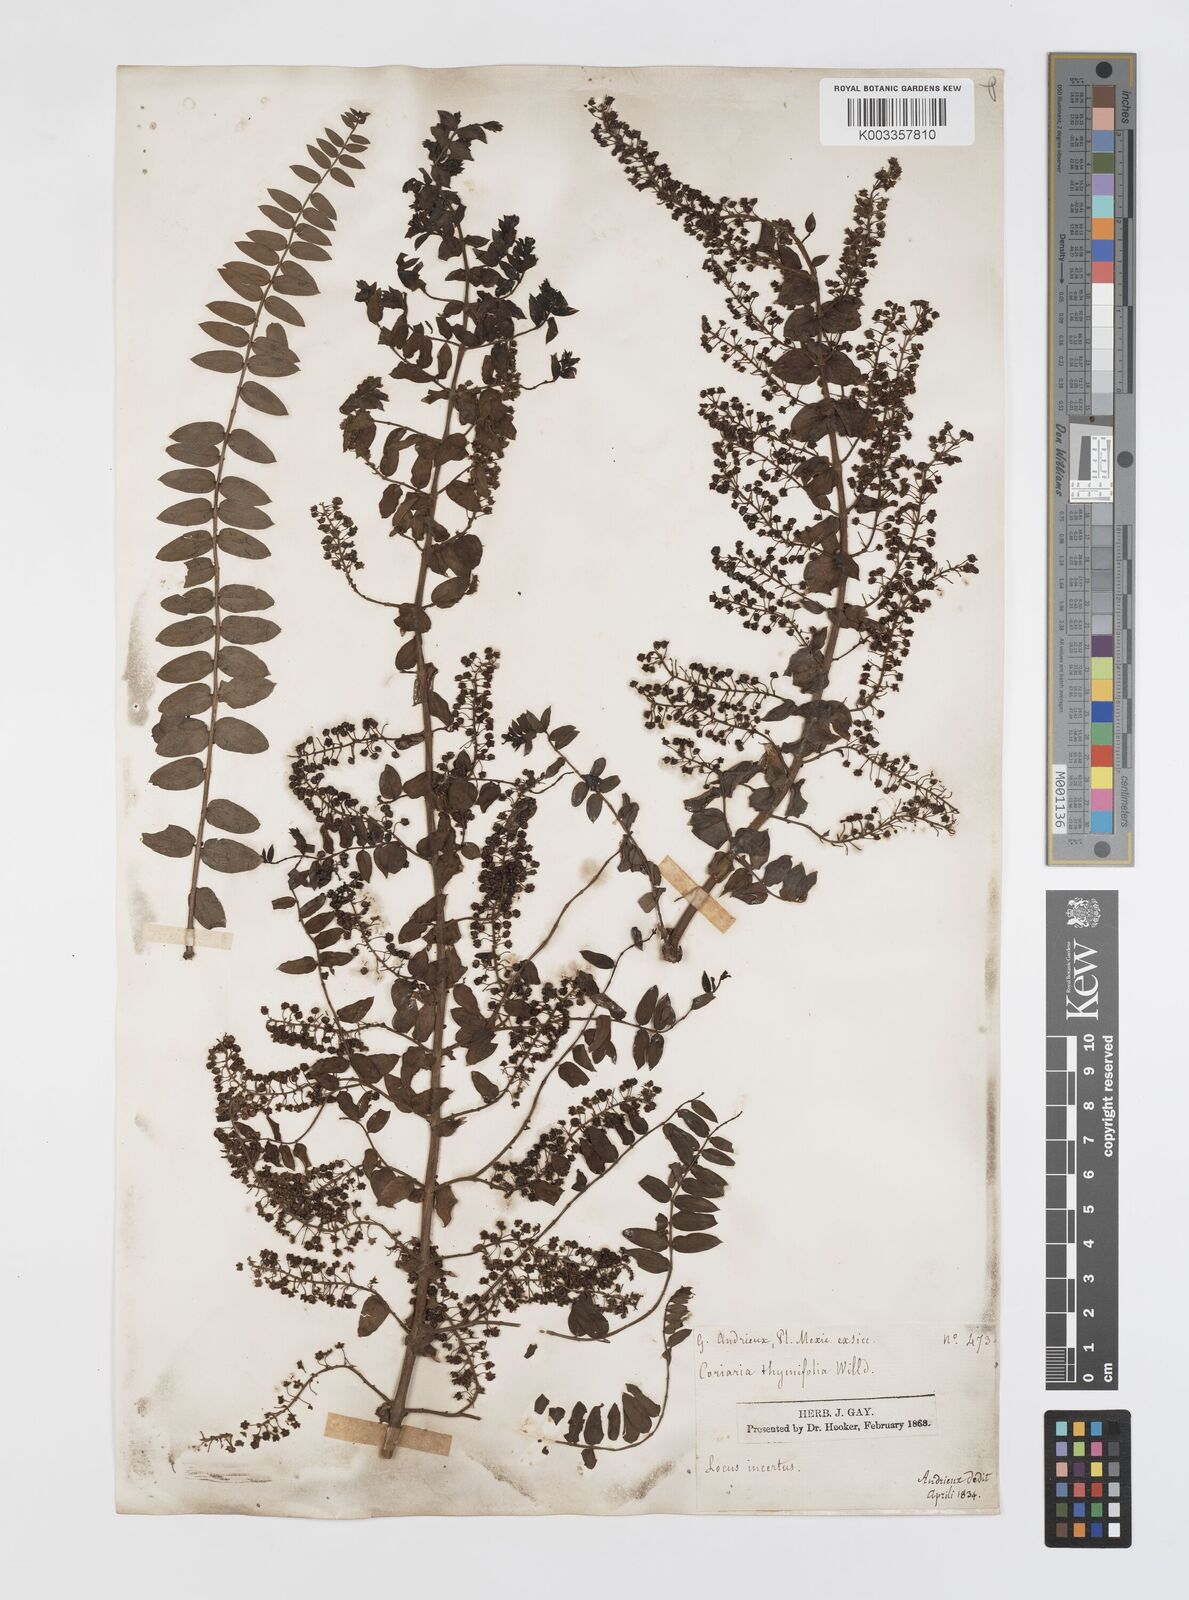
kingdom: Plantae
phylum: Tracheophyta
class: Magnoliopsida
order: Cucurbitales
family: Coriariaceae
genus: Coriaria
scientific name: Coriaria microphylla
